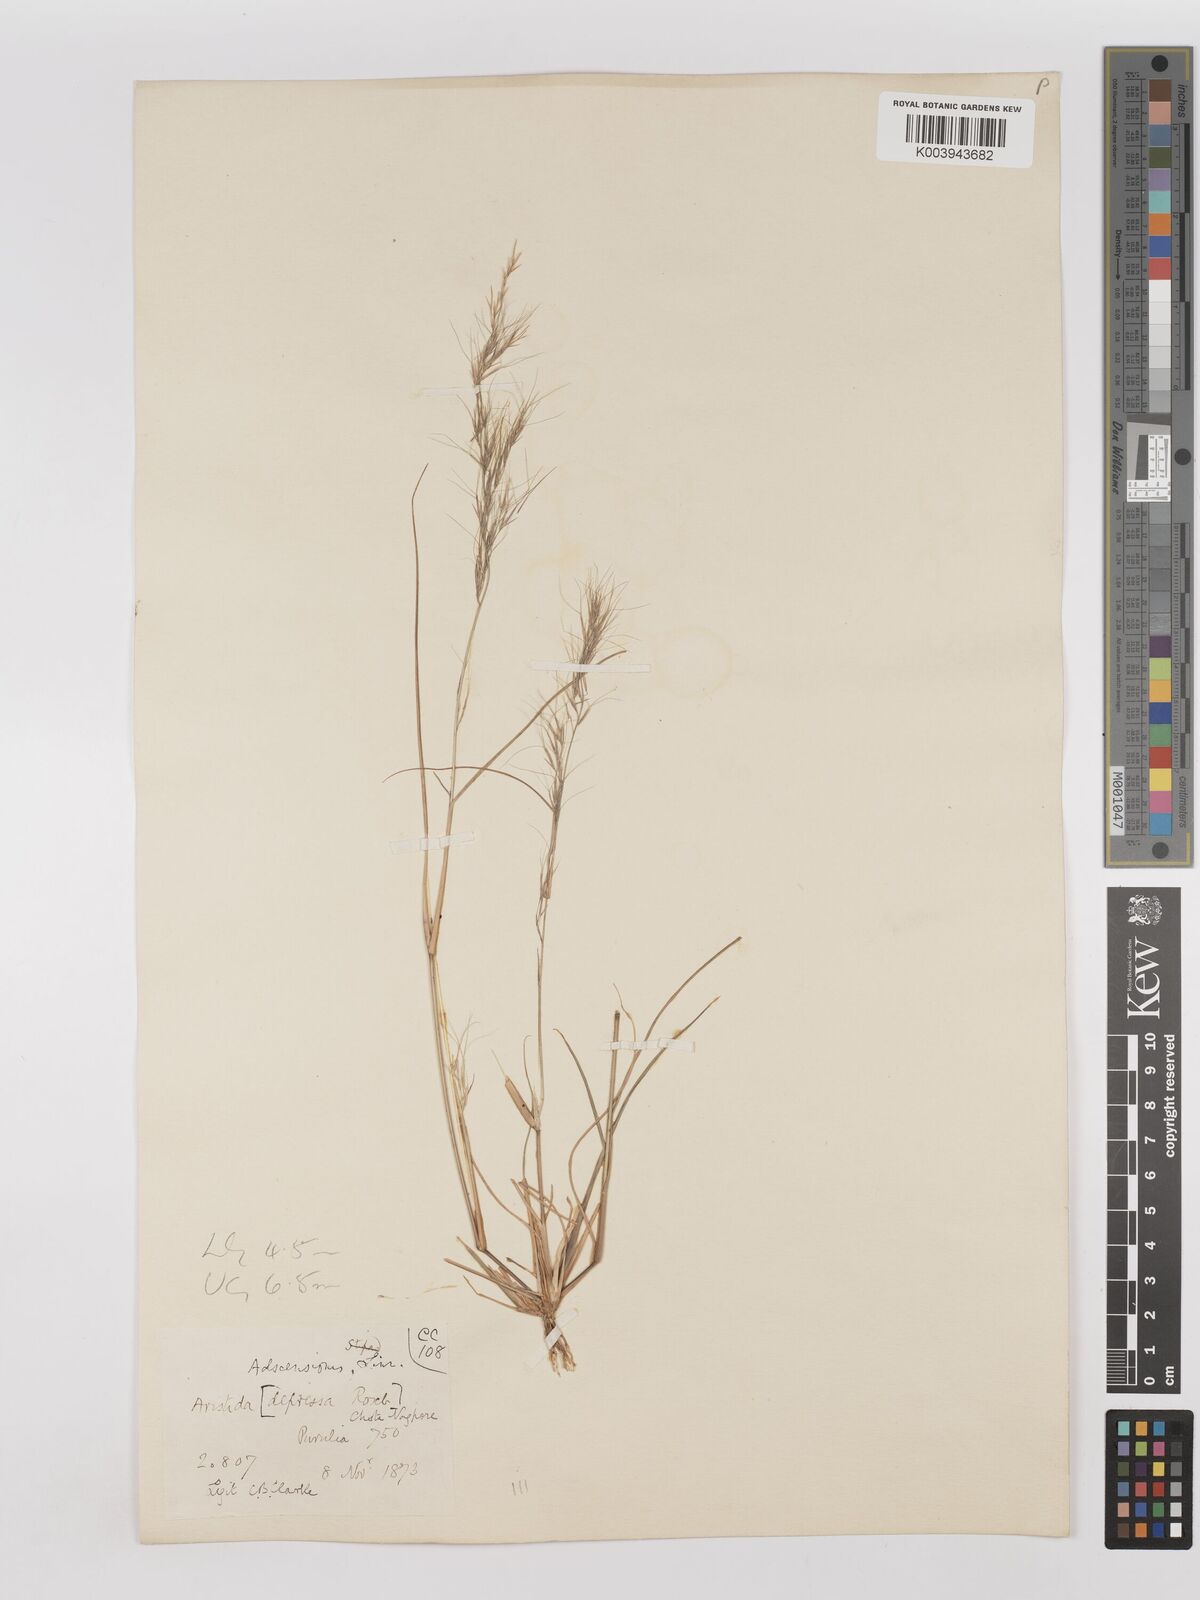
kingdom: Plantae
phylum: Tracheophyta
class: Liliopsida
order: Poales
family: Poaceae
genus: Aristida
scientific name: Aristida adscensionis
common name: Sixweeks threeawn
